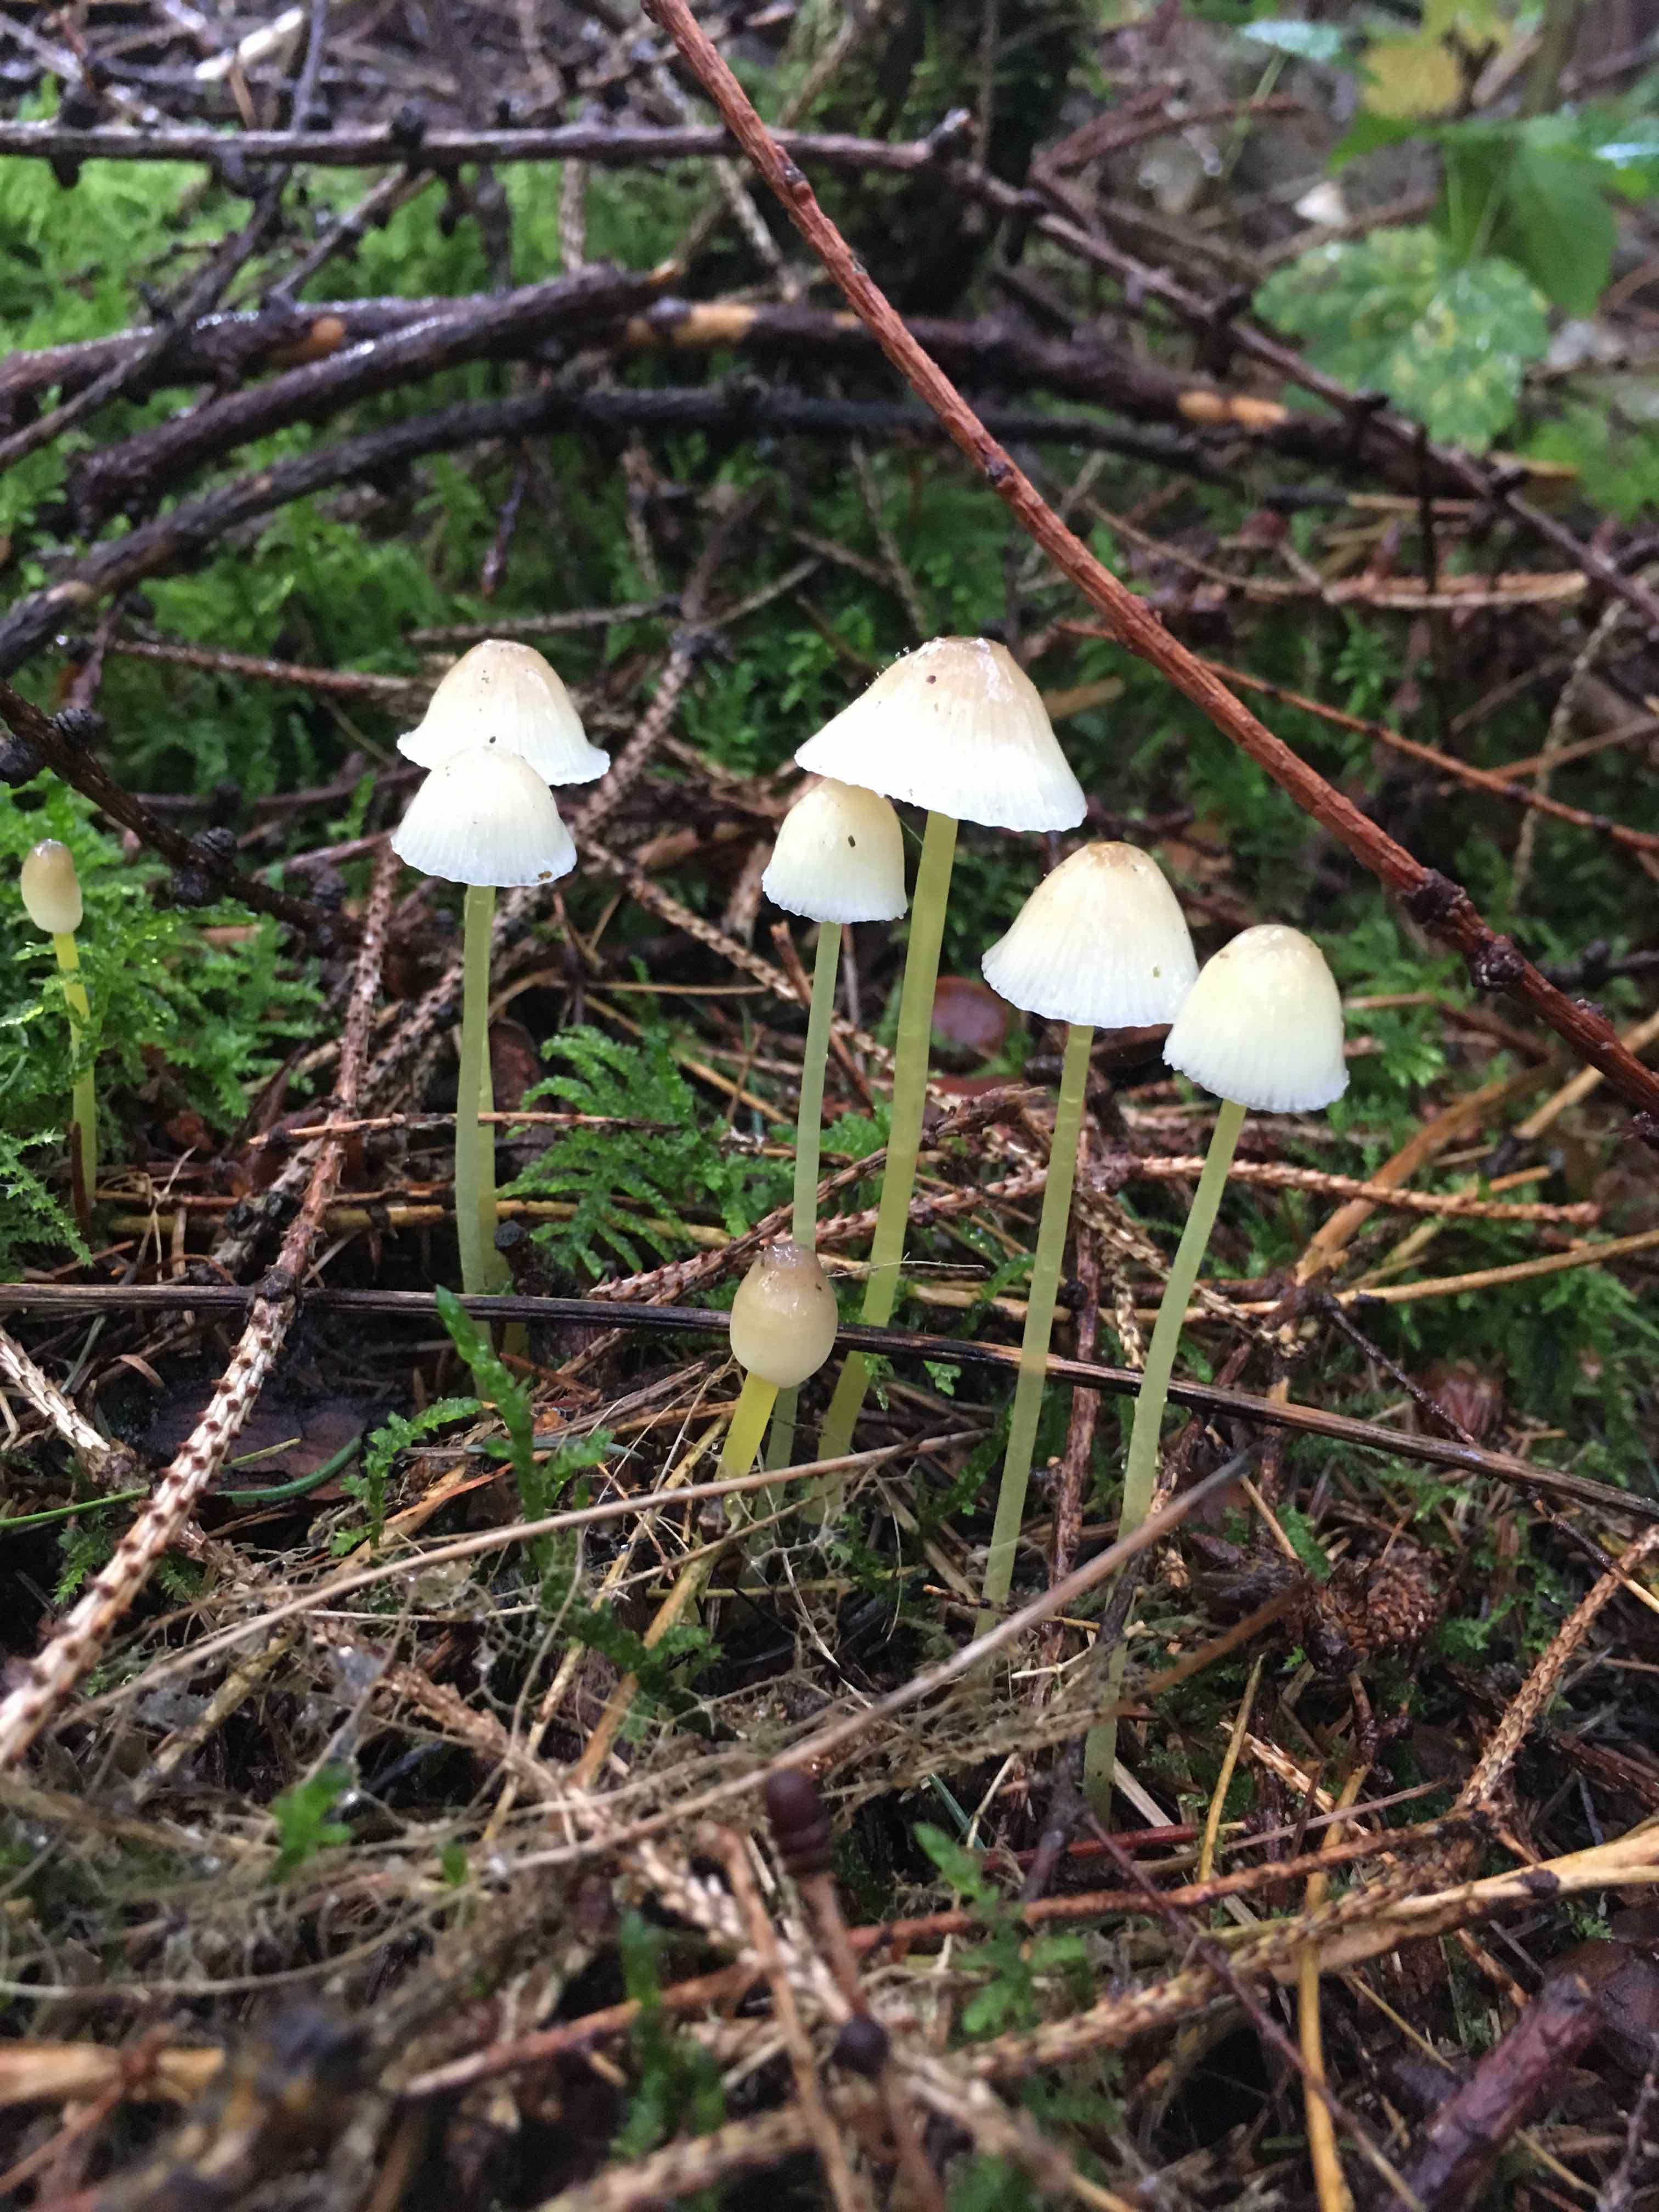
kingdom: Fungi
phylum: Basidiomycota
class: Agaricomycetes
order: Agaricales
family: Mycenaceae
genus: Mycena
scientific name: Mycena epipterygia
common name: gulstokket huesvamp
